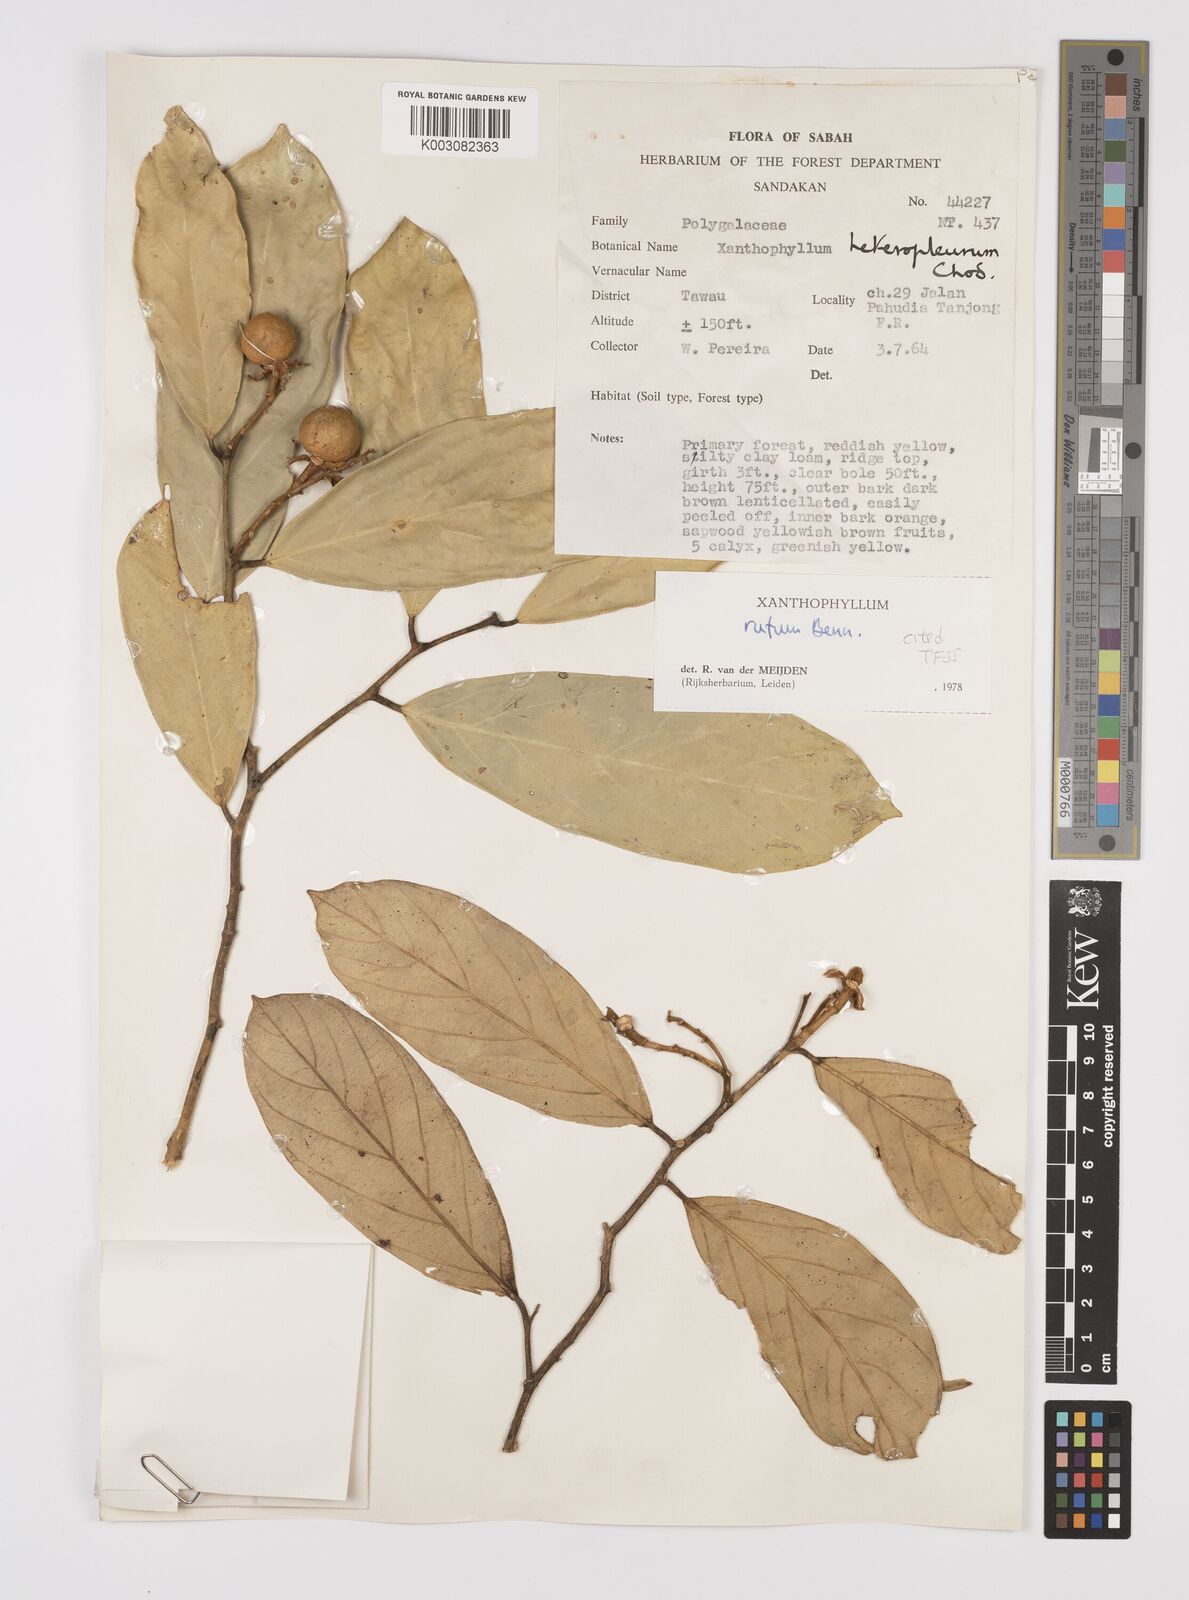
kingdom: Plantae
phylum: Tracheophyta
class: Magnoliopsida
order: Fabales
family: Polygalaceae
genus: Xanthophyllum
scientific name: Xanthophyllum rufum
